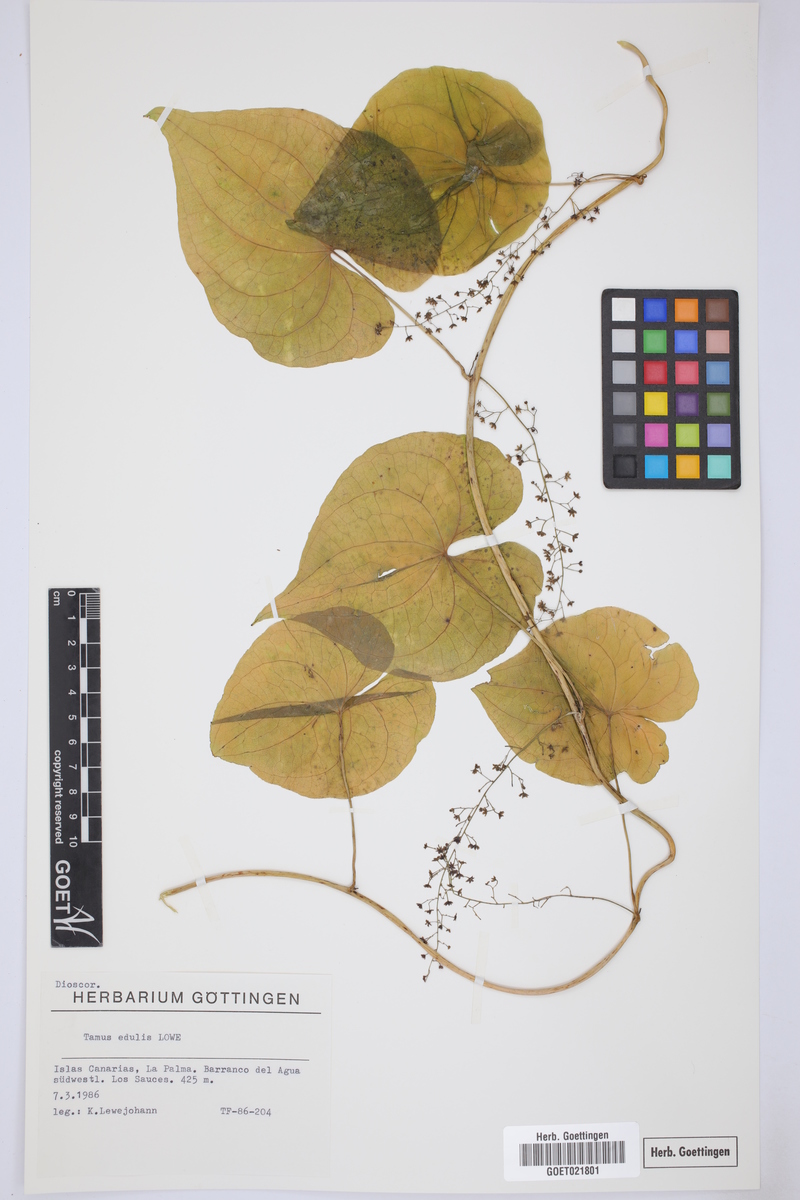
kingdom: Plantae
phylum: Tracheophyta
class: Liliopsida
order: Dioscoreales
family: Dioscoreaceae
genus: Dioscorea
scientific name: Dioscorea communis
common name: Black-bindweed
